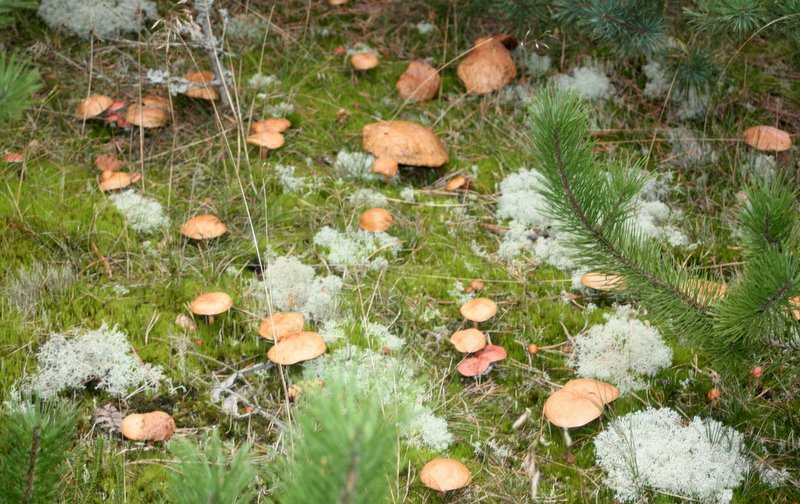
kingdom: Fungi
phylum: Basidiomycota
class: Agaricomycetes
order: Boletales
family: Gomphidiaceae
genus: Gomphidius
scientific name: Gomphidius roseus
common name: rosenrød slimslør
